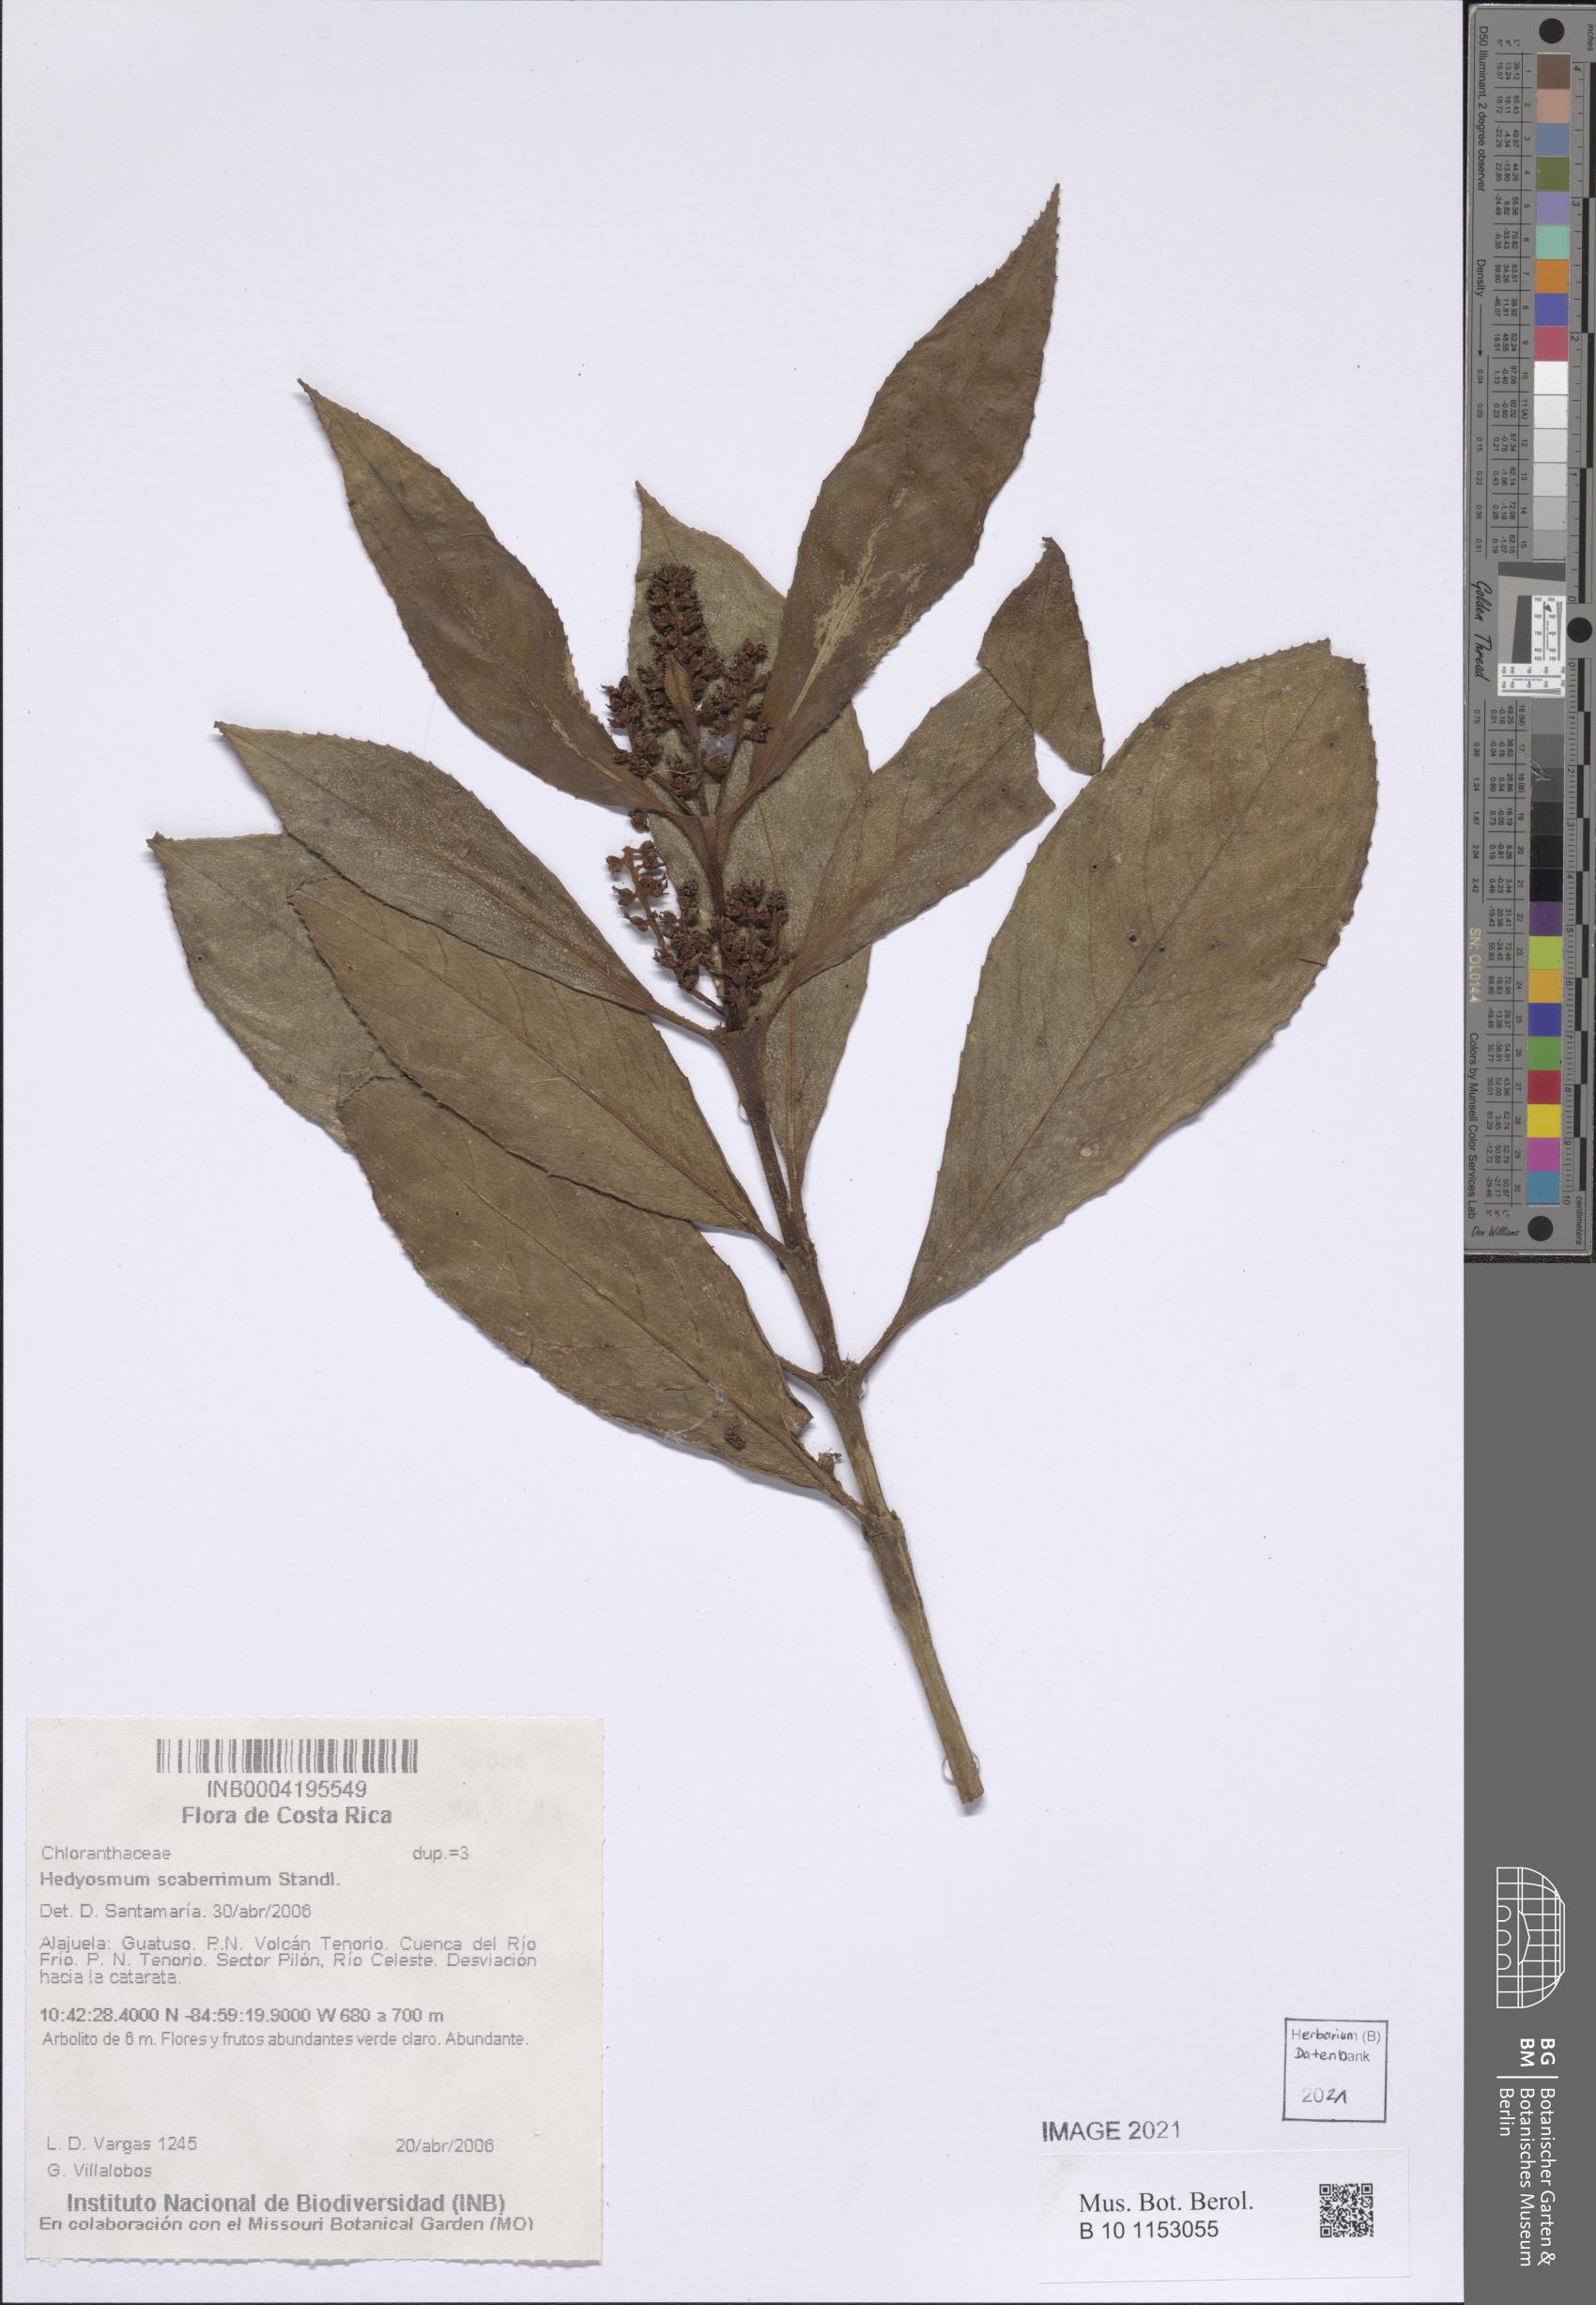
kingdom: Plantae
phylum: Tracheophyta
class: Magnoliopsida
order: Chloranthales
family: Chloranthaceae
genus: Hedyosmum
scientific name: Hedyosmum scaberrimum
